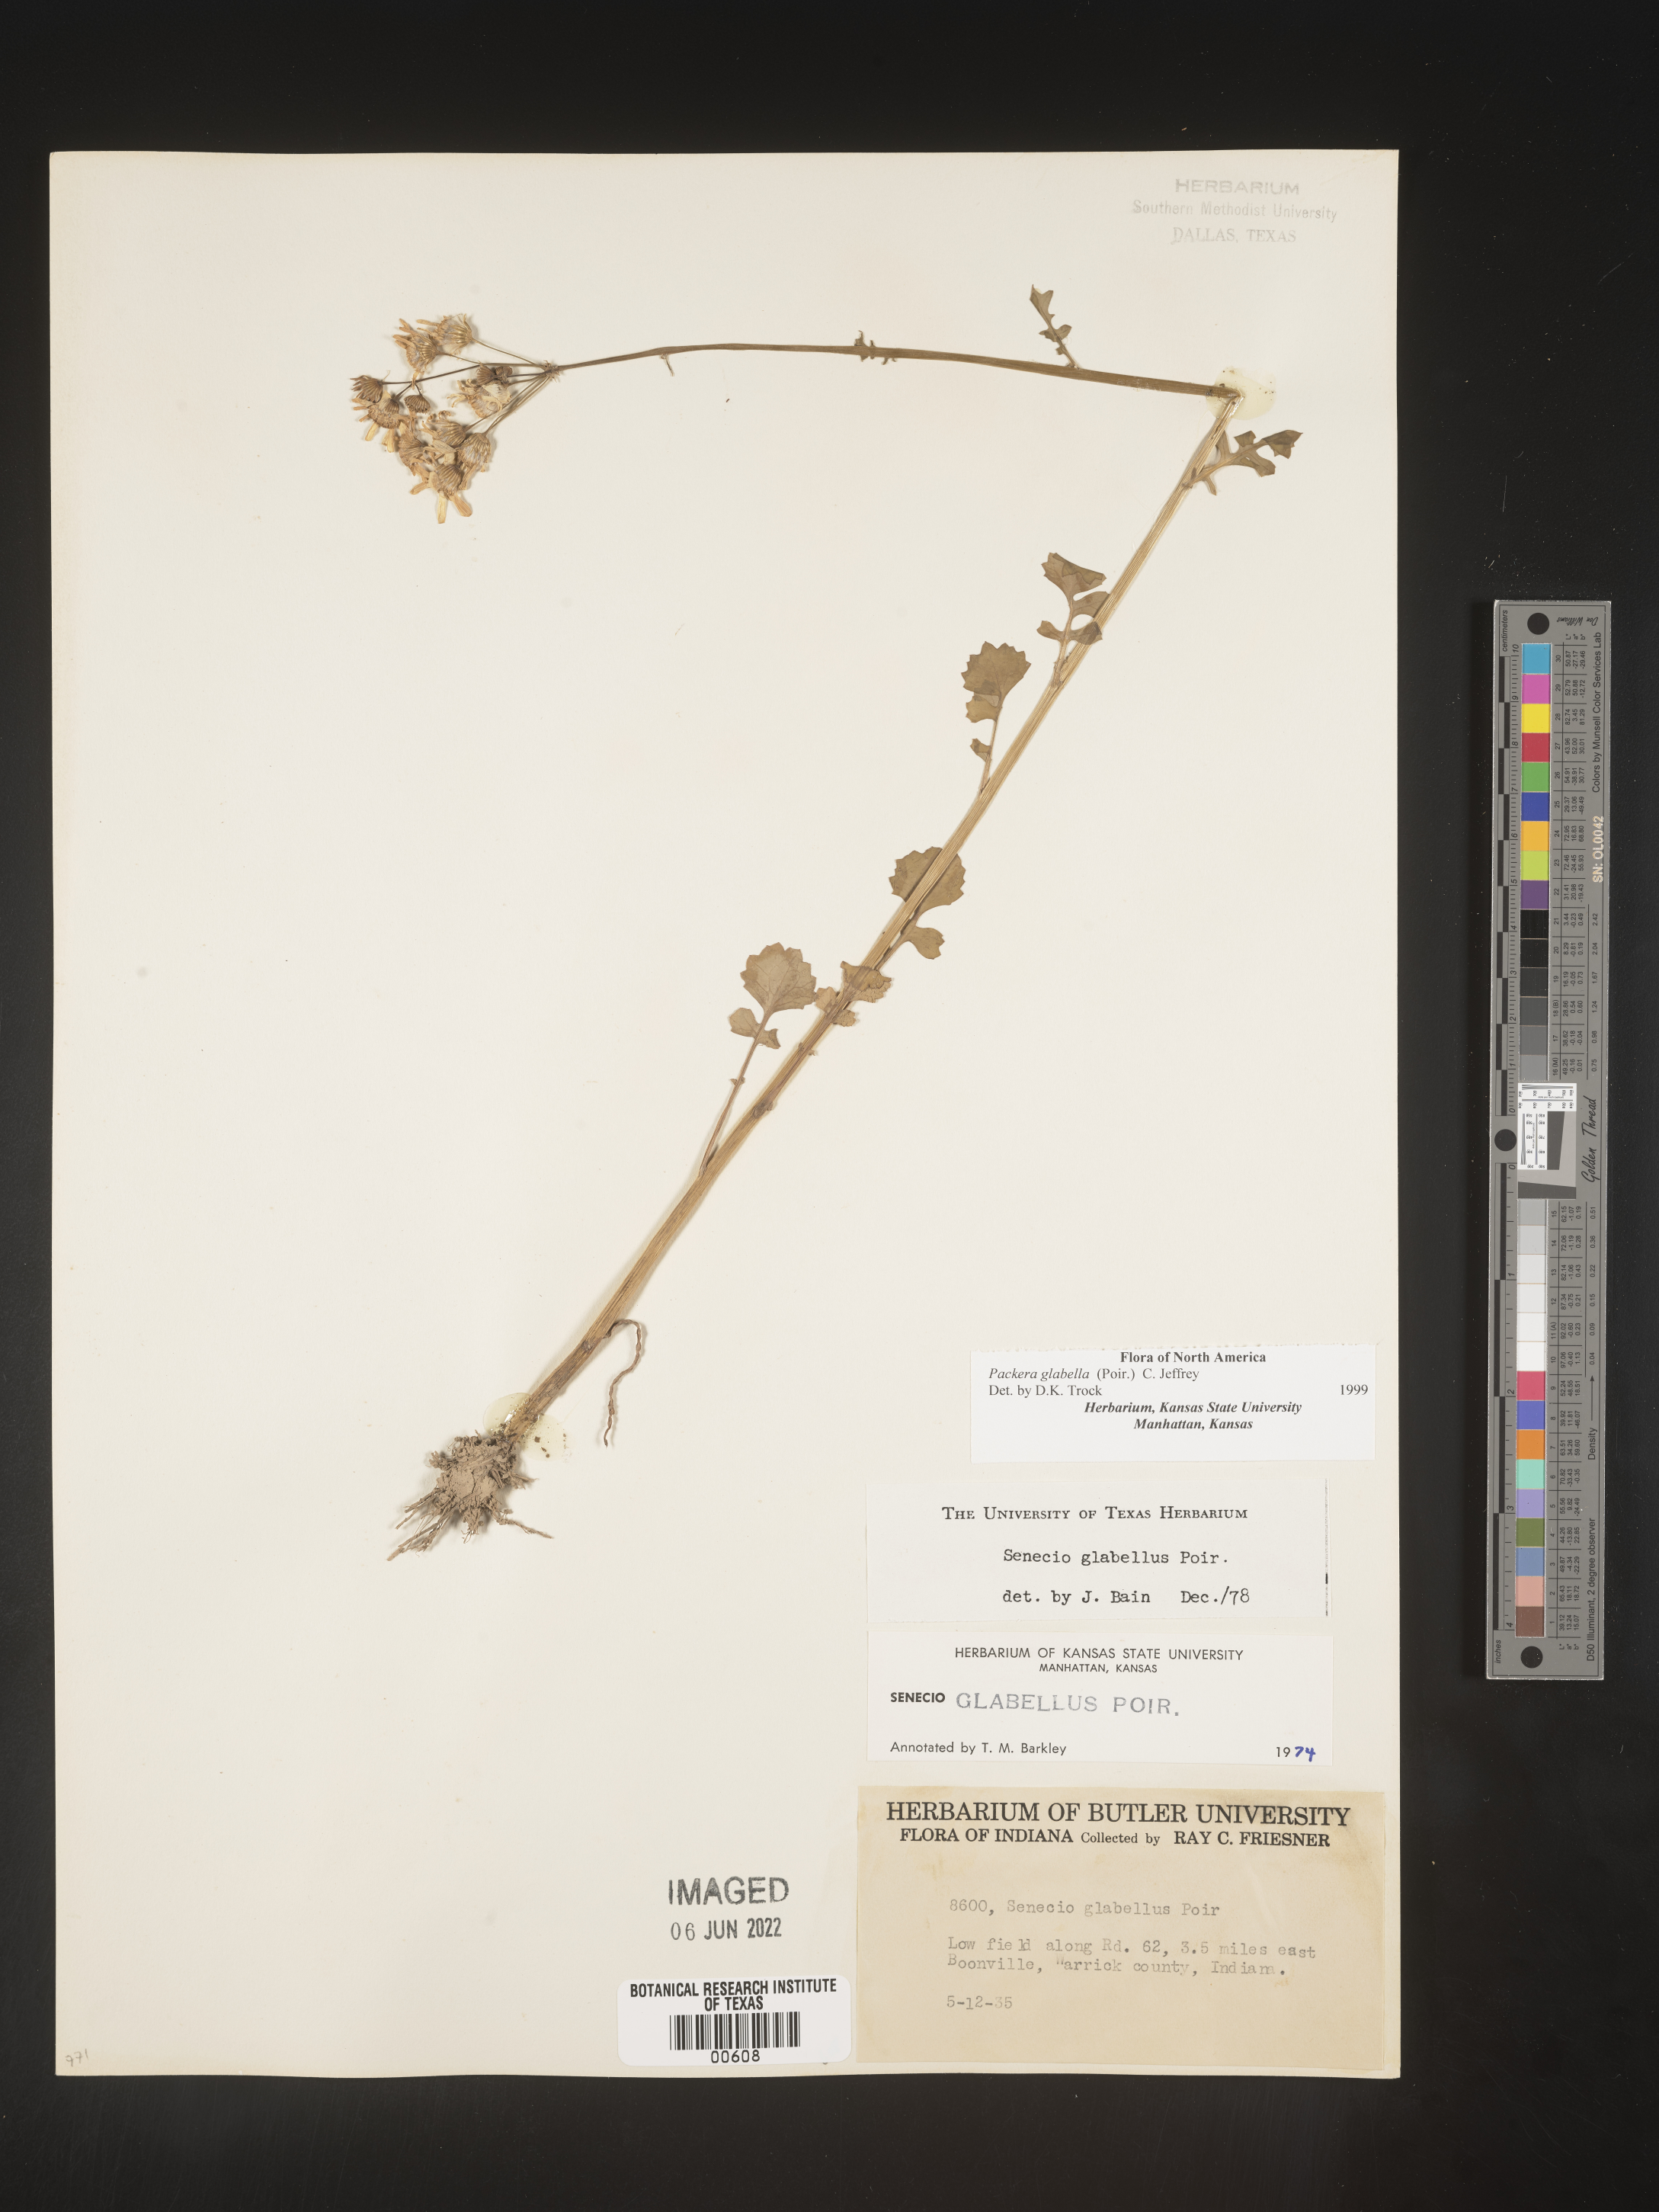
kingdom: Plantae
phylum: Tracheophyta
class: Magnoliopsida
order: Asterales
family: Asteraceae
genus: Packera
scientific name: Packera glabella
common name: Butterweed
